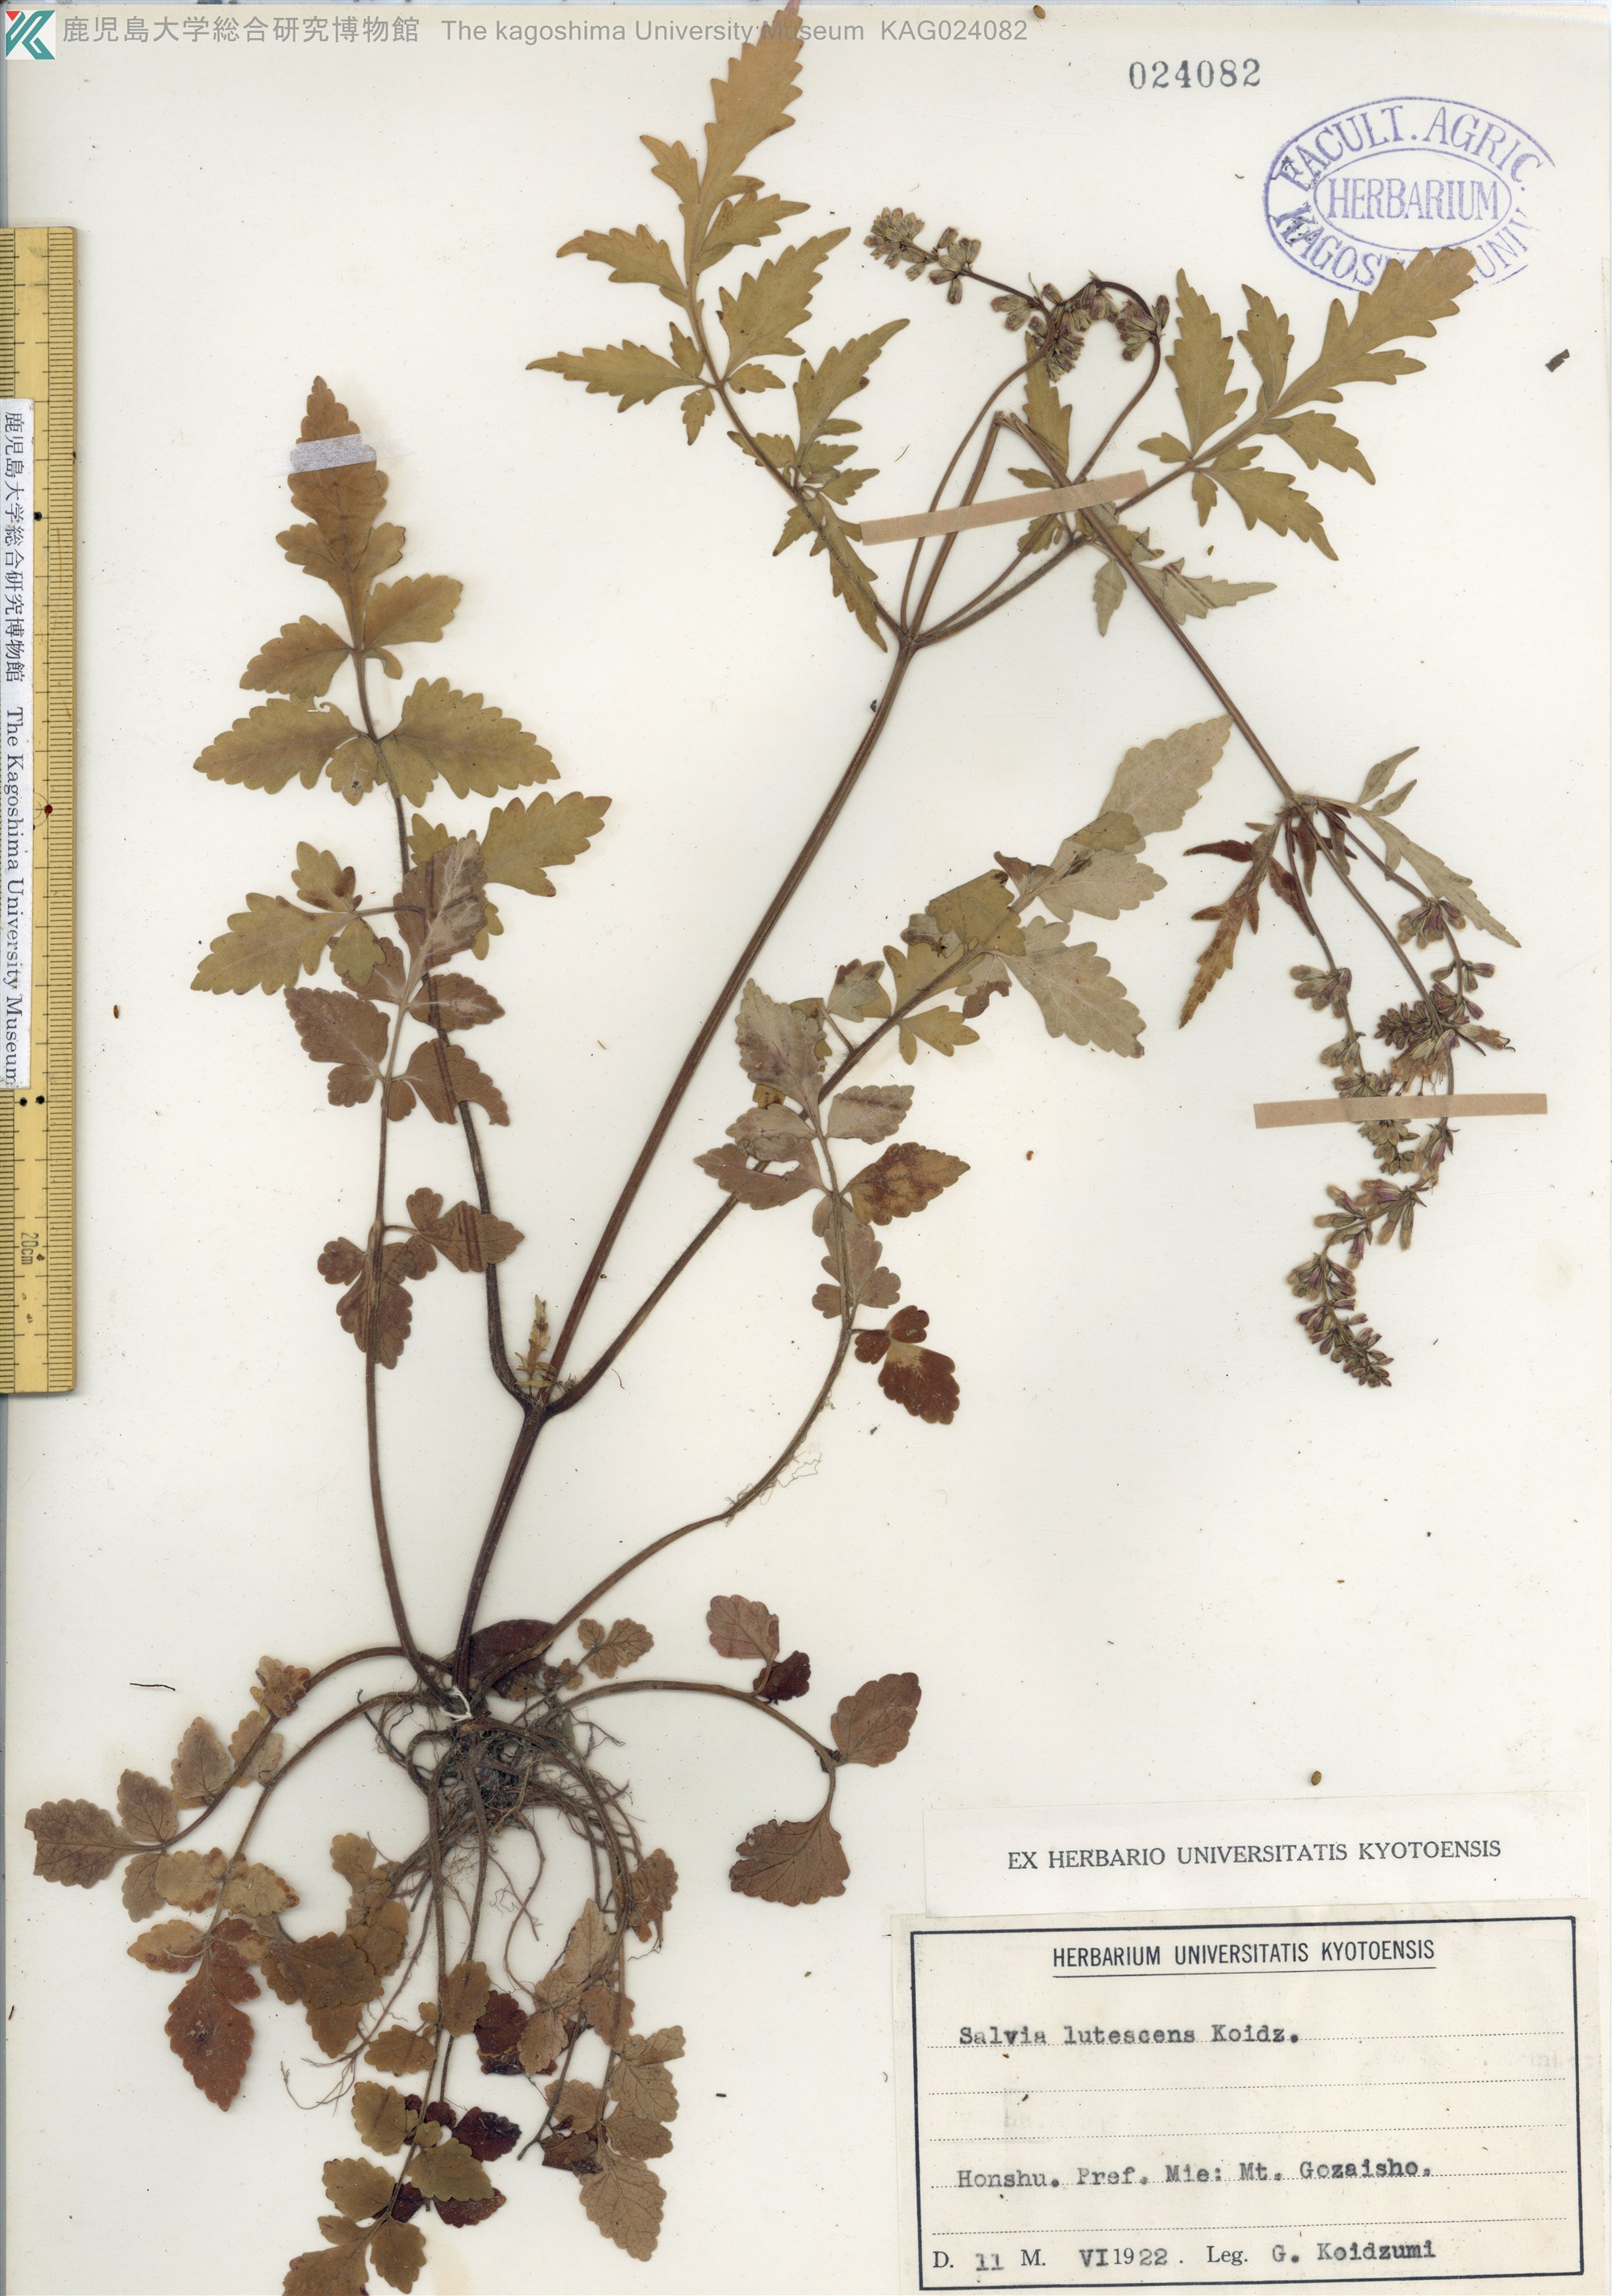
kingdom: Plantae
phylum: Tracheophyta
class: Magnoliopsida
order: Lamiales
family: Lamiaceae
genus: Salvia
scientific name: Salvia lutescens
